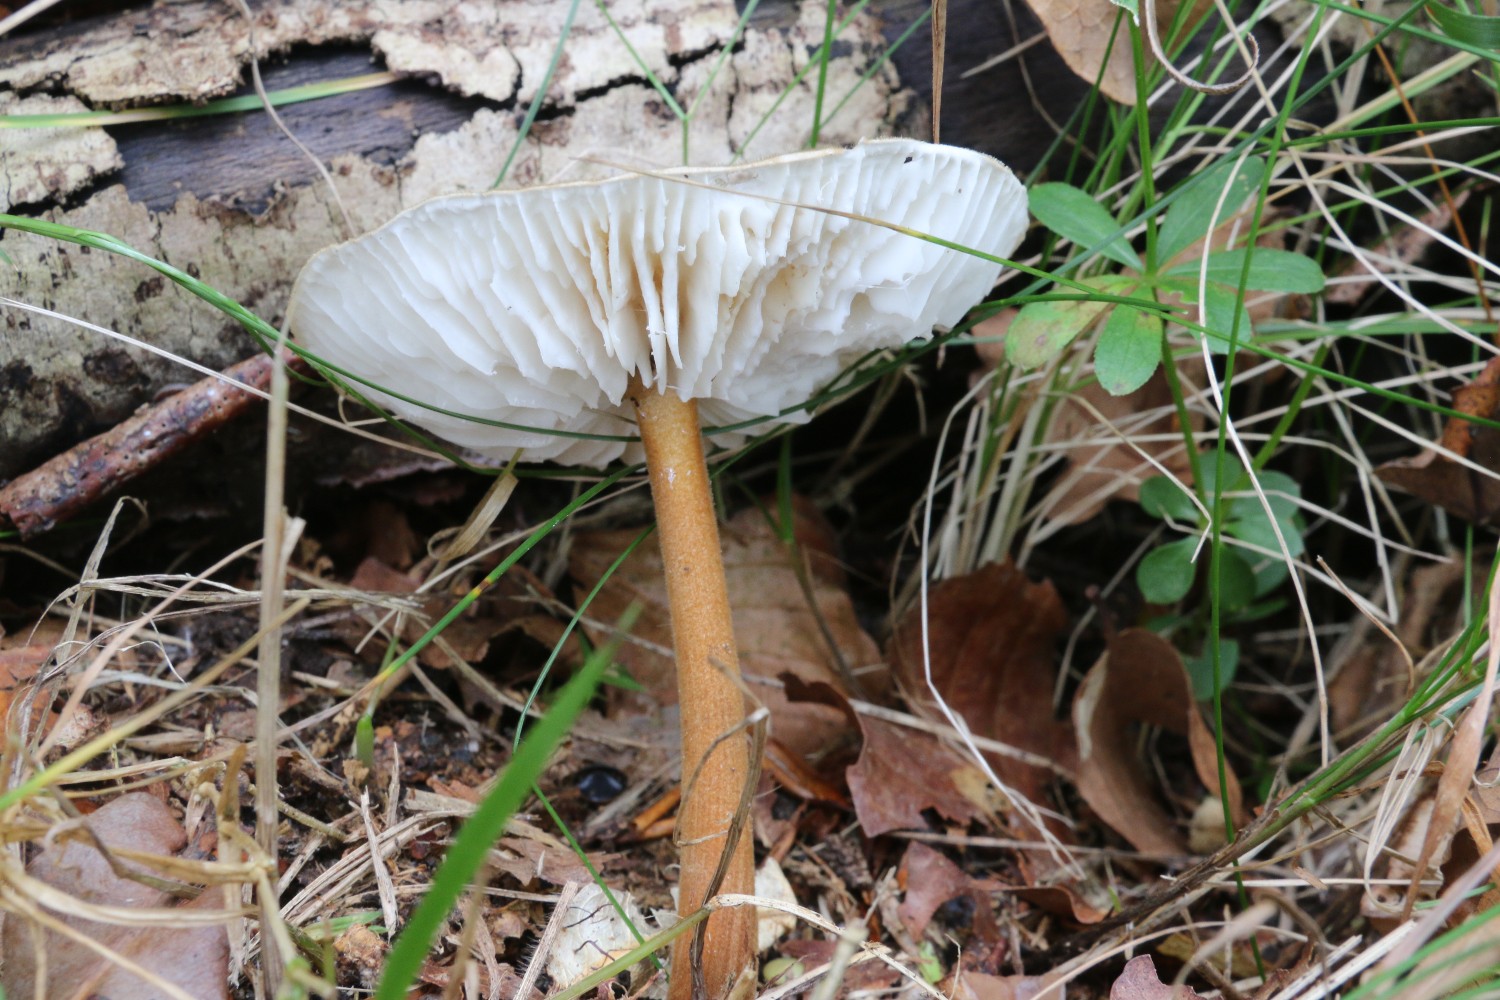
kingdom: Fungi
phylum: Basidiomycota
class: Agaricomycetes
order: Agaricales
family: Physalacriaceae
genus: Xerula
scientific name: Xerula pudens
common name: filtet pælerodshat
